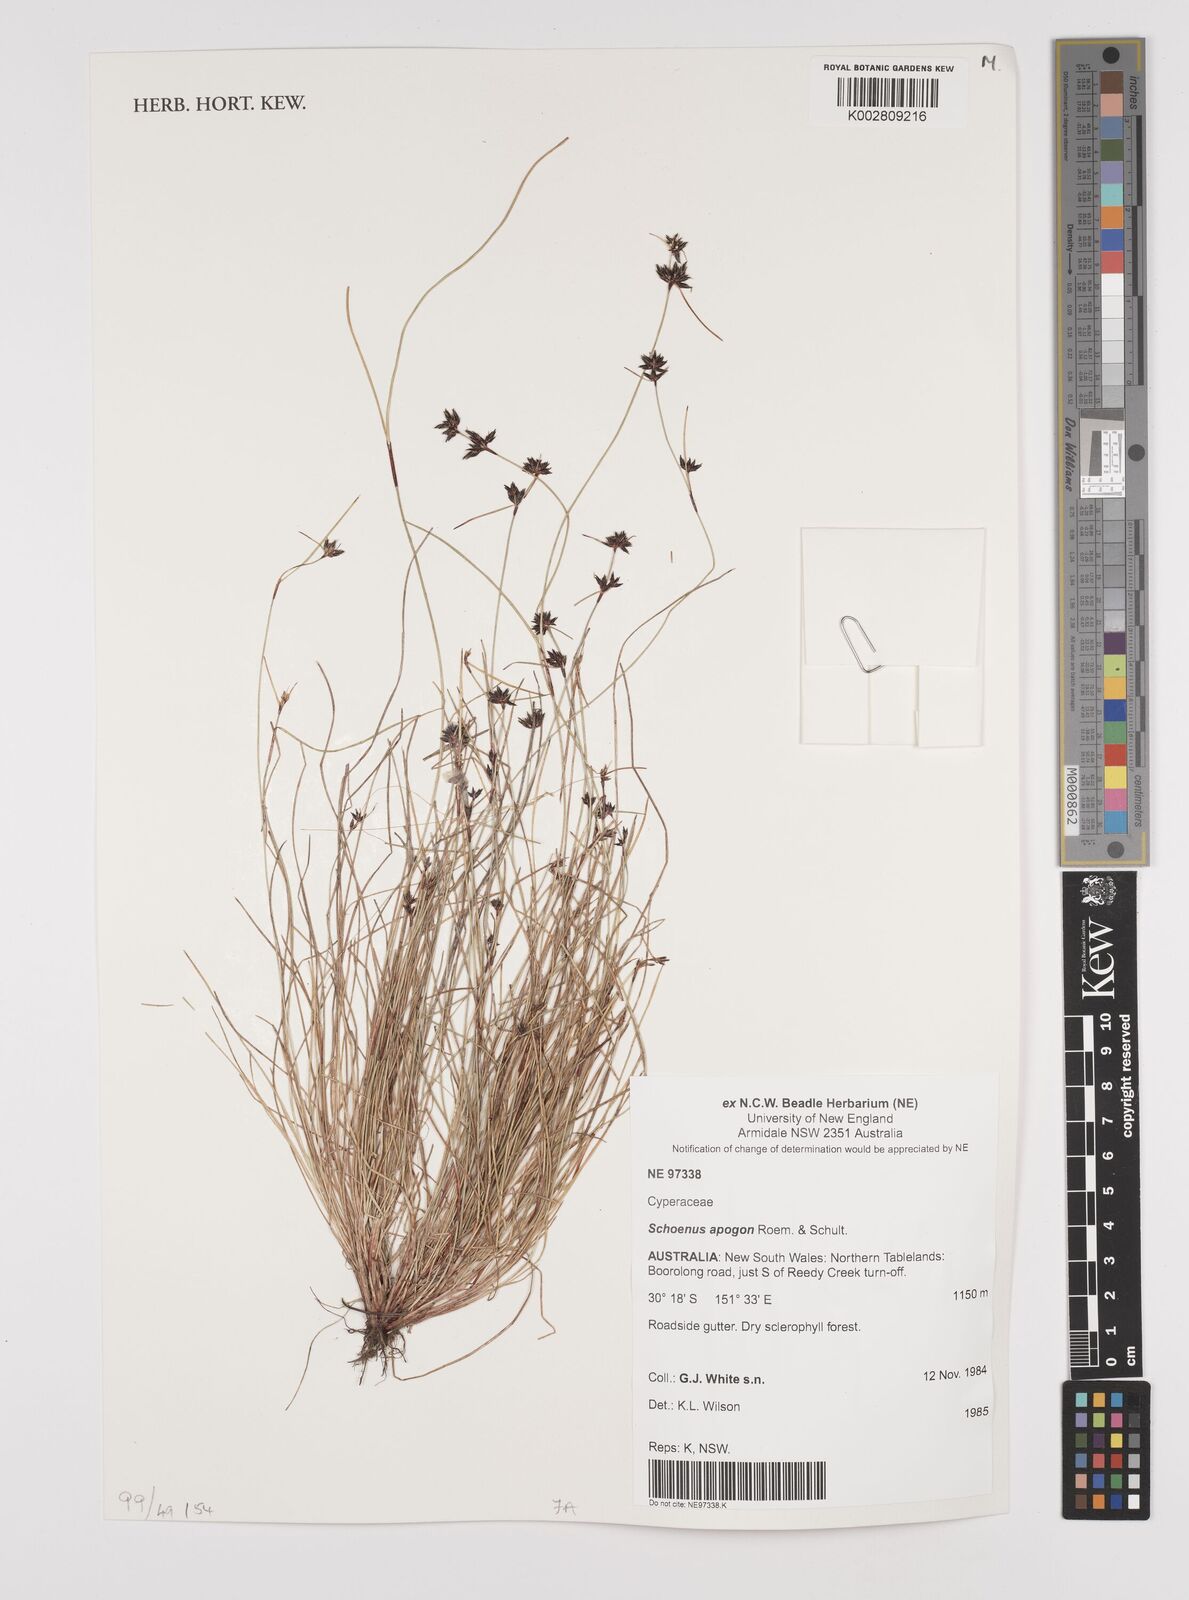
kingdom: Plantae
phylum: Tracheophyta
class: Liliopsida
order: Poales
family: Cyperaceae
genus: Schoenus
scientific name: Schoenus apogon
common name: Smooth bogrush
